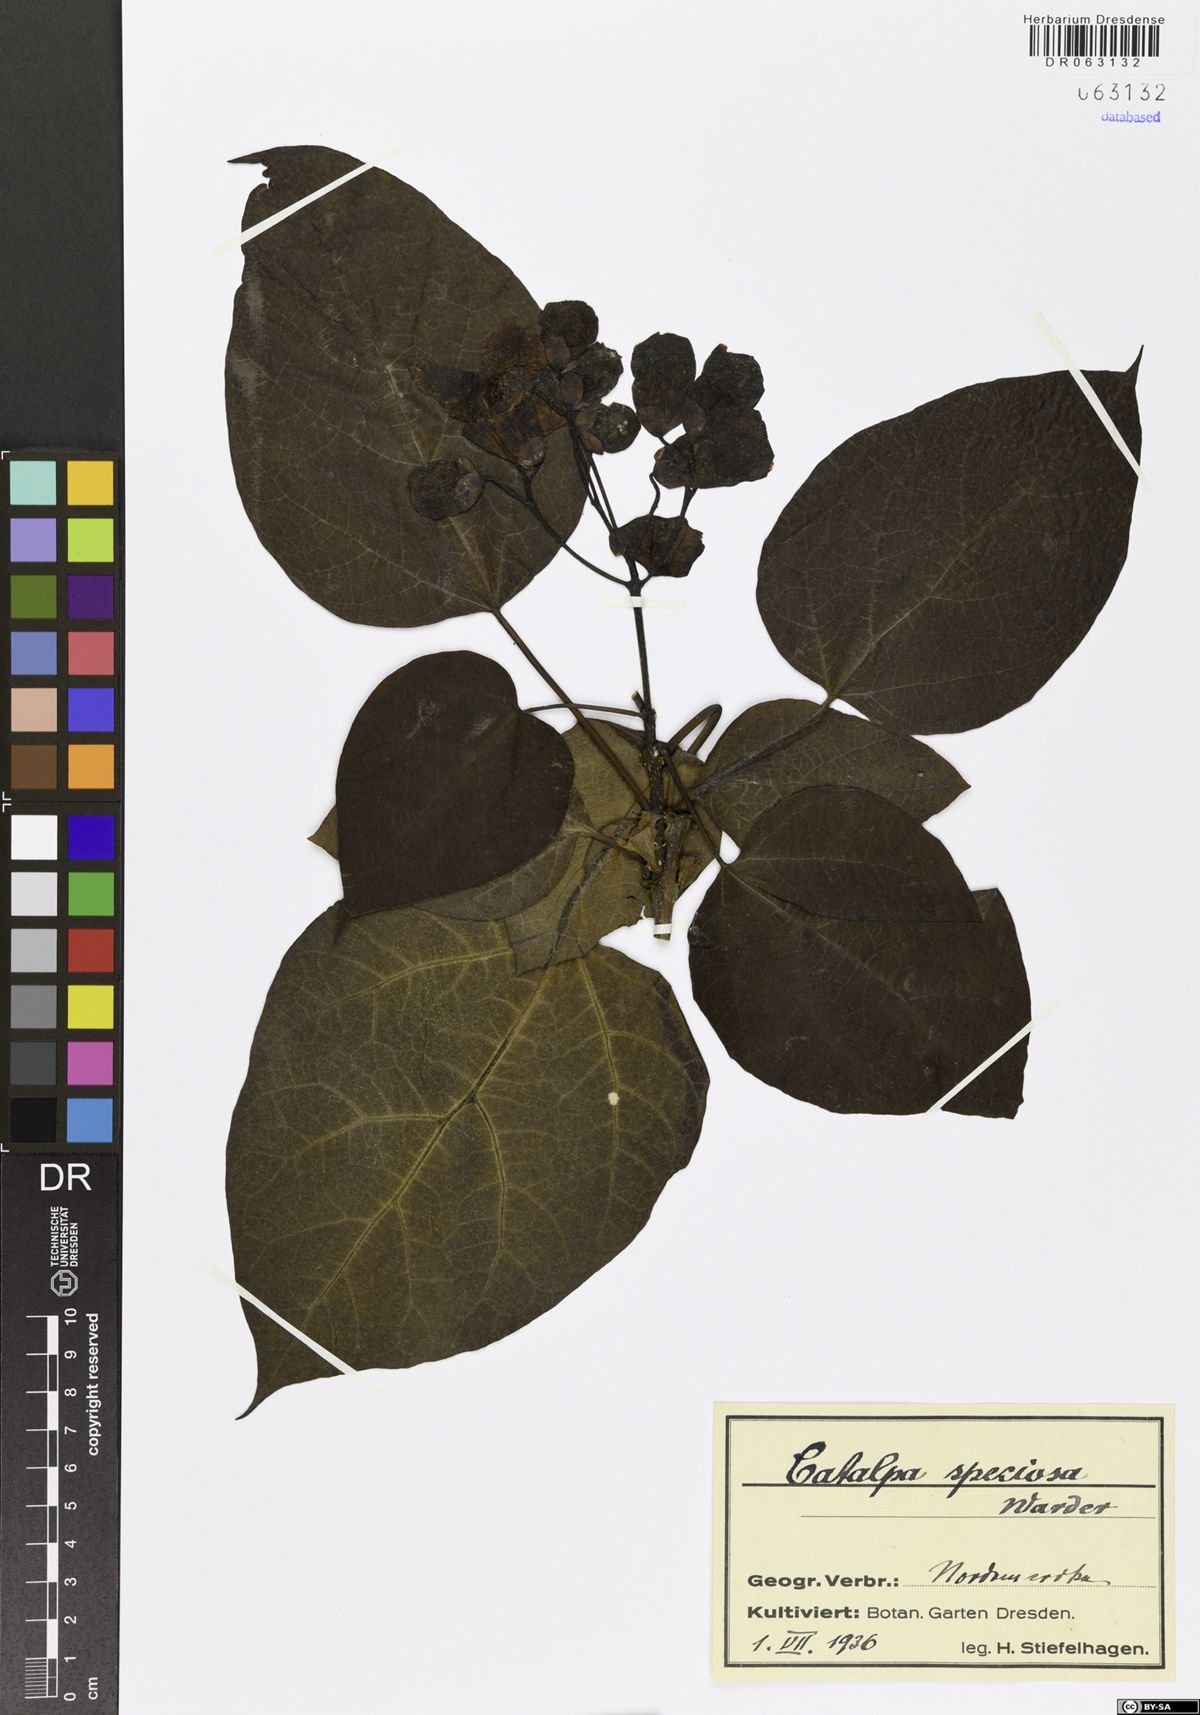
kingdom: Plantae
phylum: Tracheophyta
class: Magnoliopsida
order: Lamiales
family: Bignoniaceae
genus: Catalpa
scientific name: Catalpa speciosa
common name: Northern catalpa
